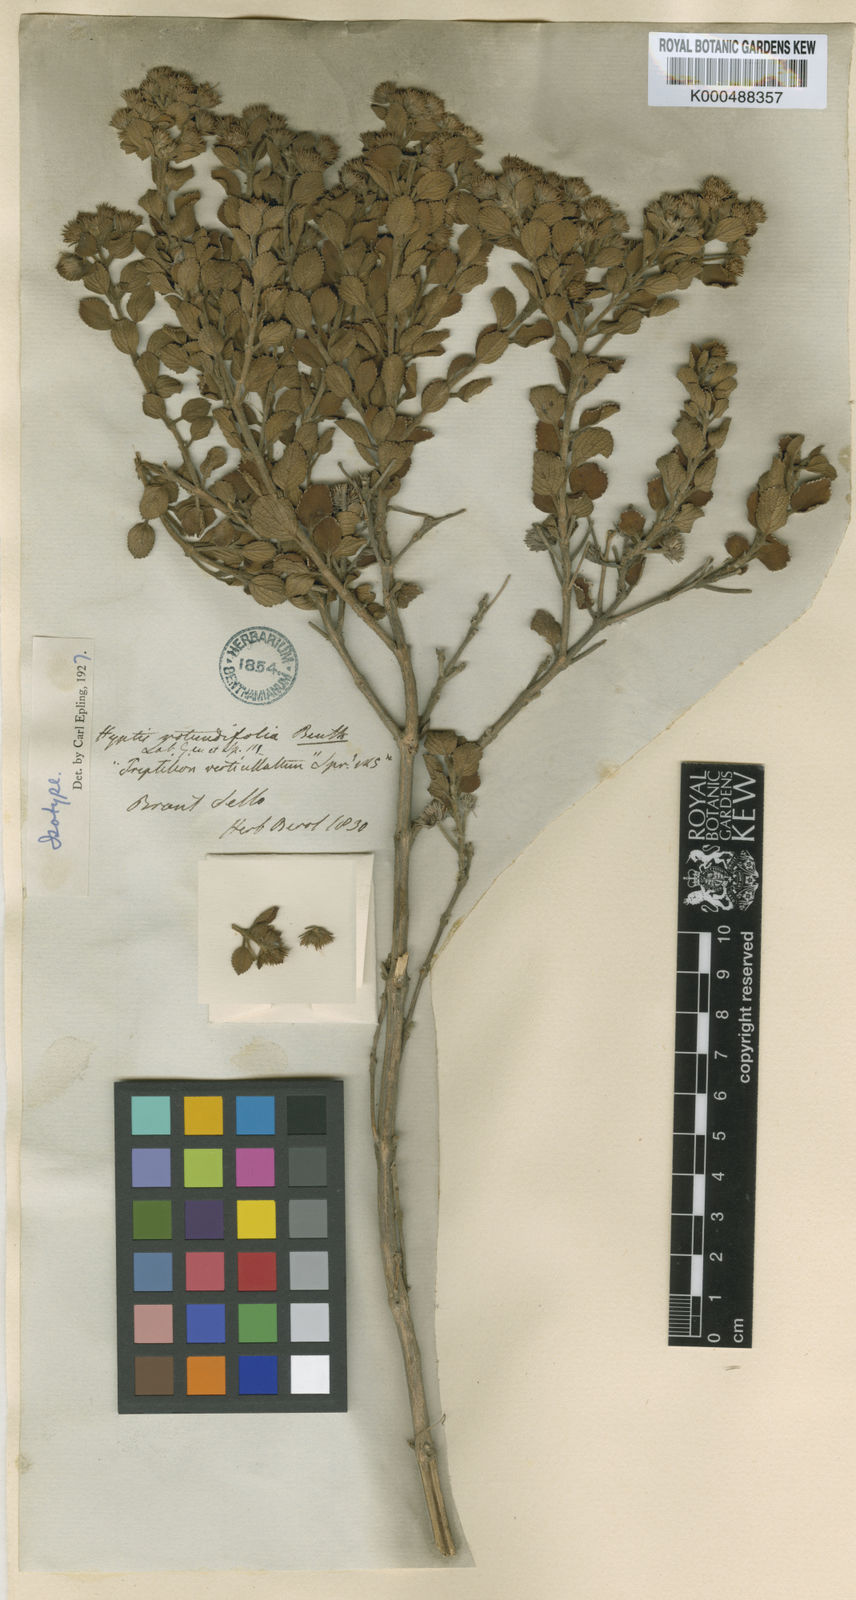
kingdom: Plantae
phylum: Tracheophyta
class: Magnoliopsida
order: Lamiales
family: Lamiaceae
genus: Hyptis
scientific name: Hyptis
